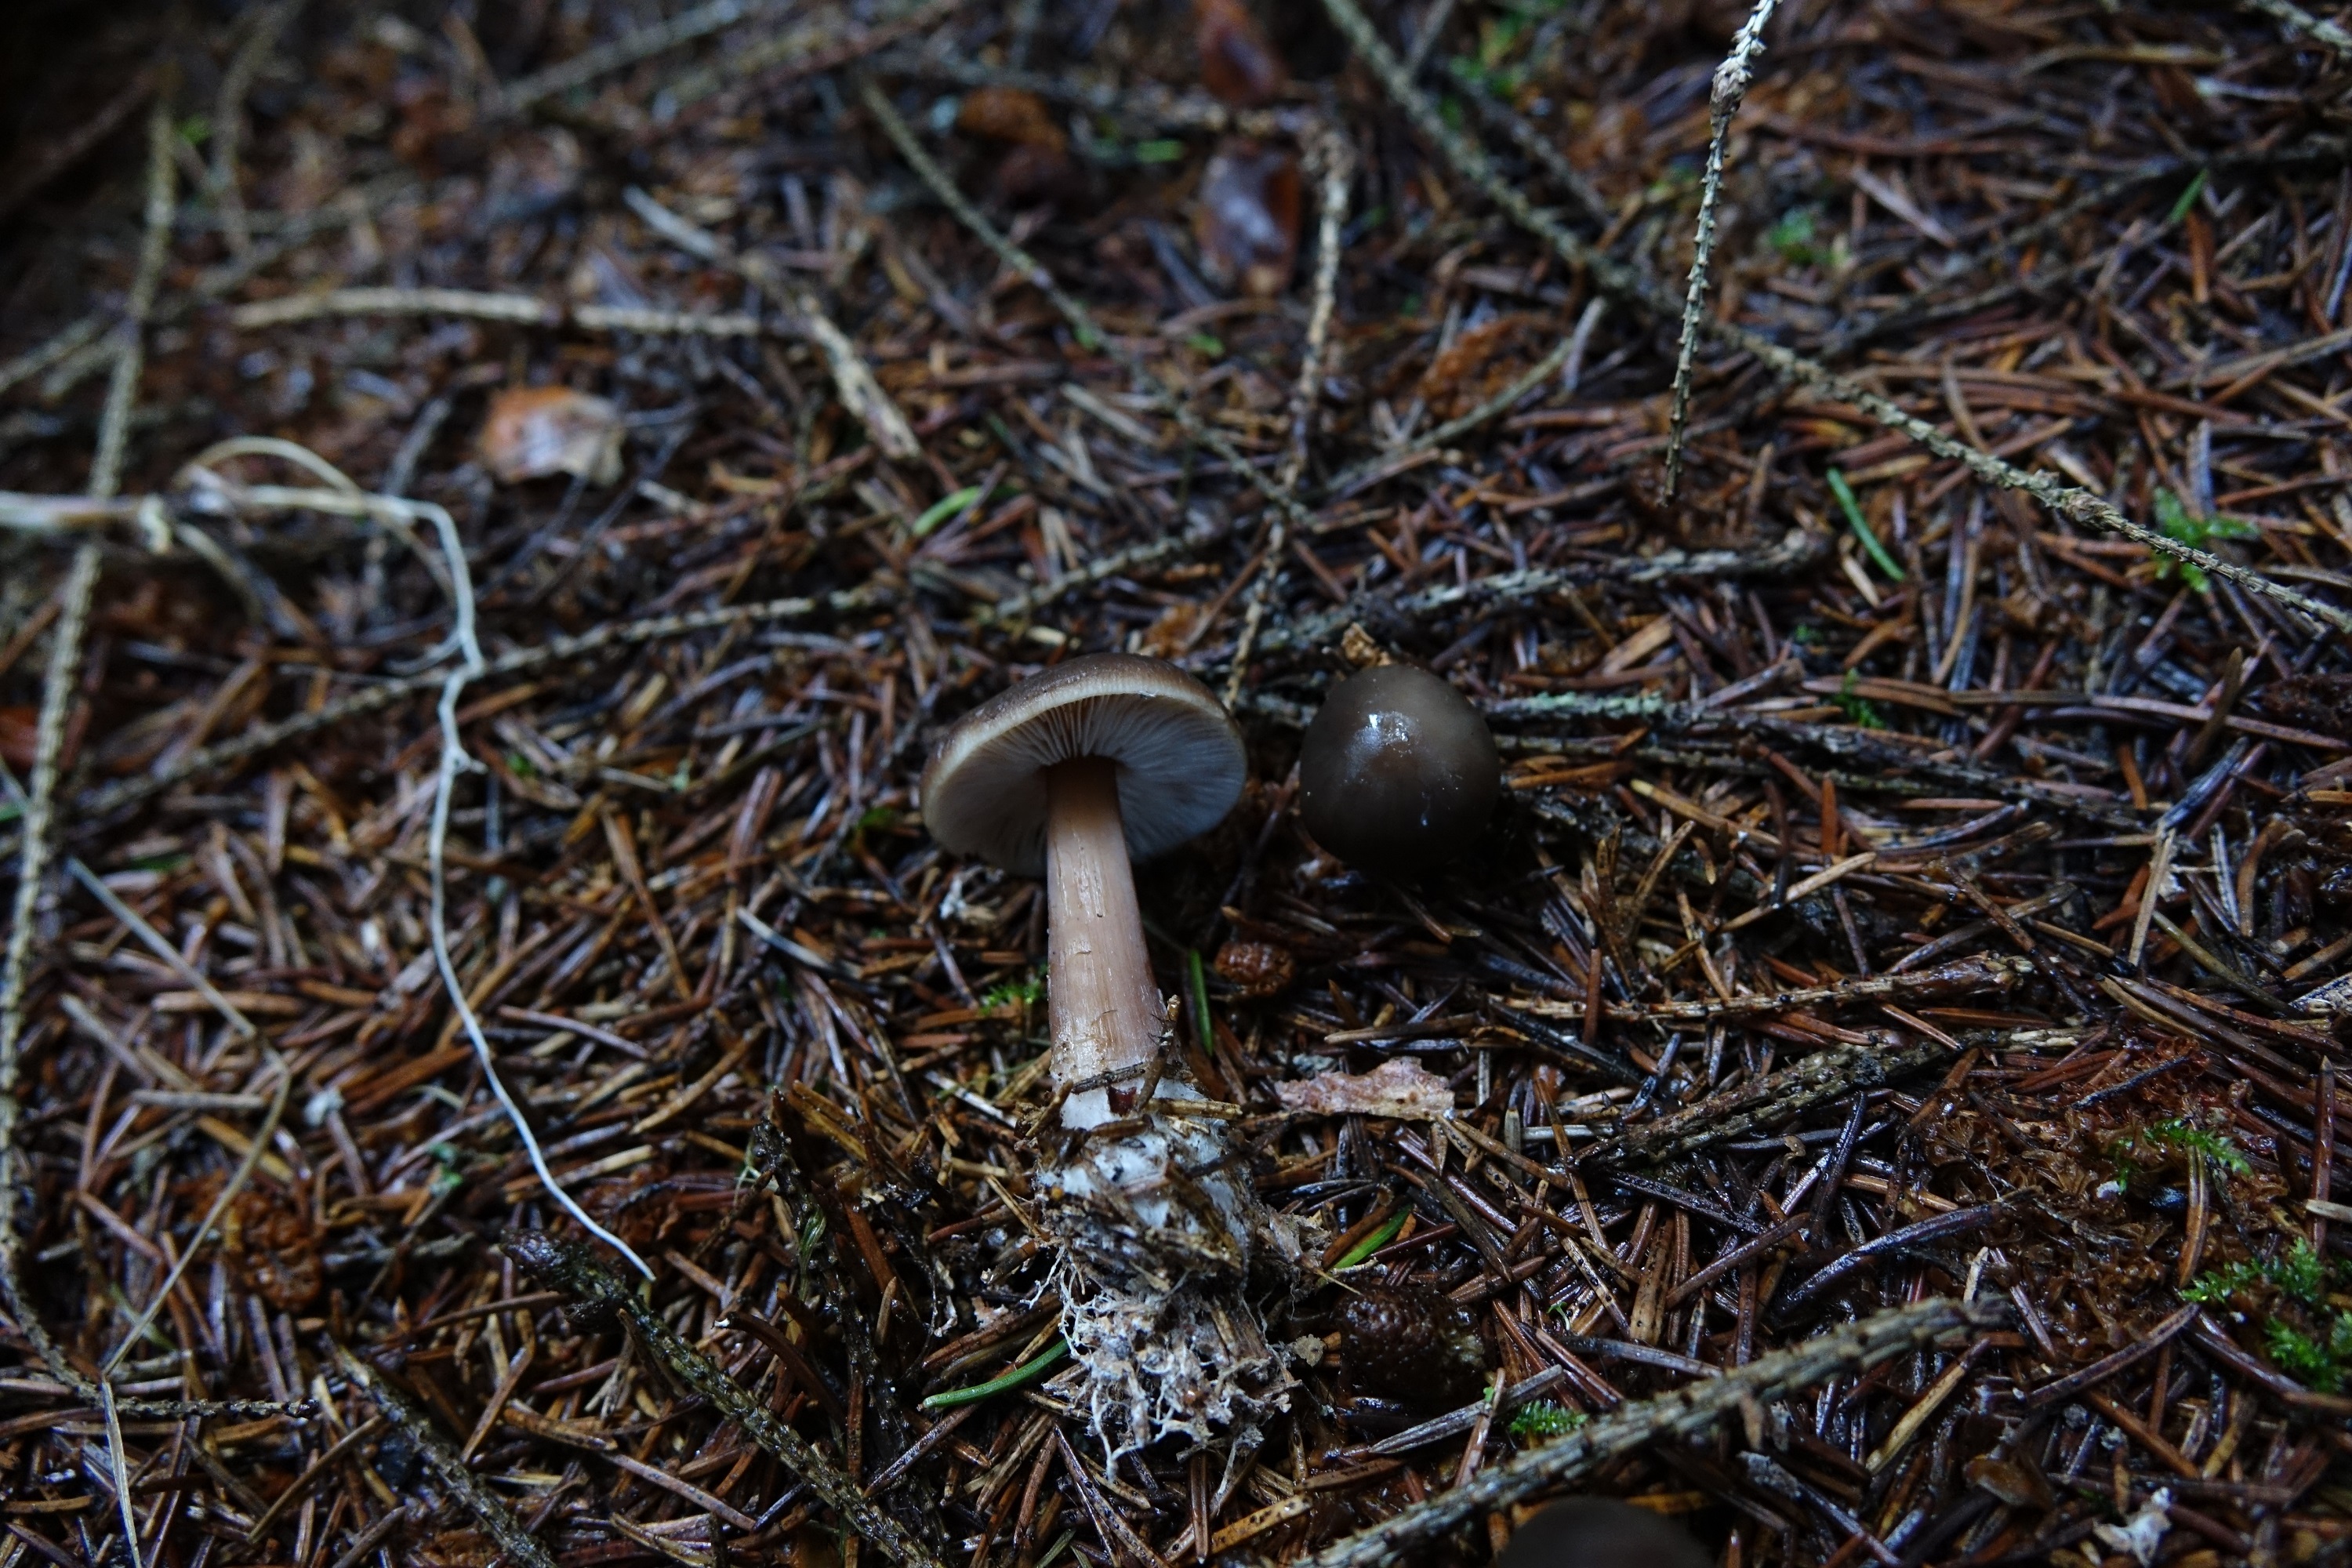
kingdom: Fungi
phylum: Basidiomycota
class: Agaricomycetes
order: Agaricales
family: Omphalotaceae
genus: Rhodocollybia
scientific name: Rhodocollybia butyracea
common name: Butter cap
